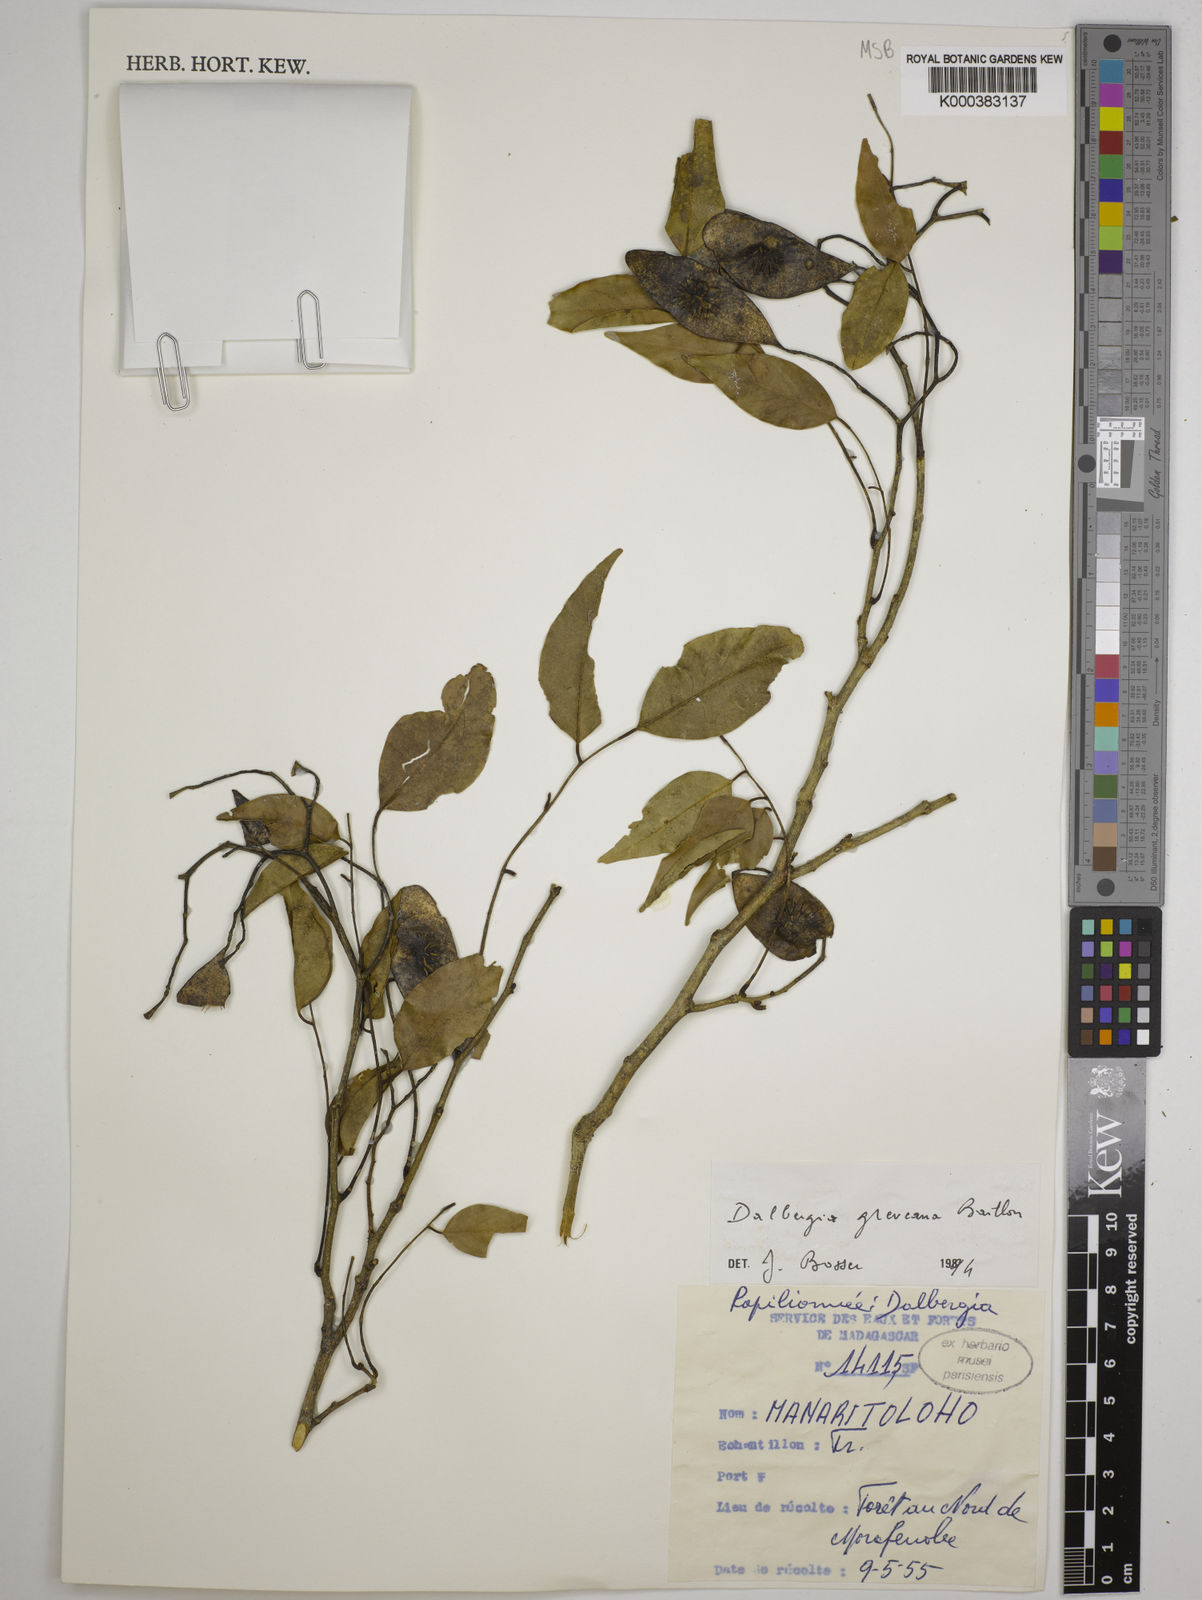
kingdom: Plantae
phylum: Tracheophyta
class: Magnoliopsida
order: Fabales
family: Fabaceae
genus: Dalbergia
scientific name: Dalbergia greveana
